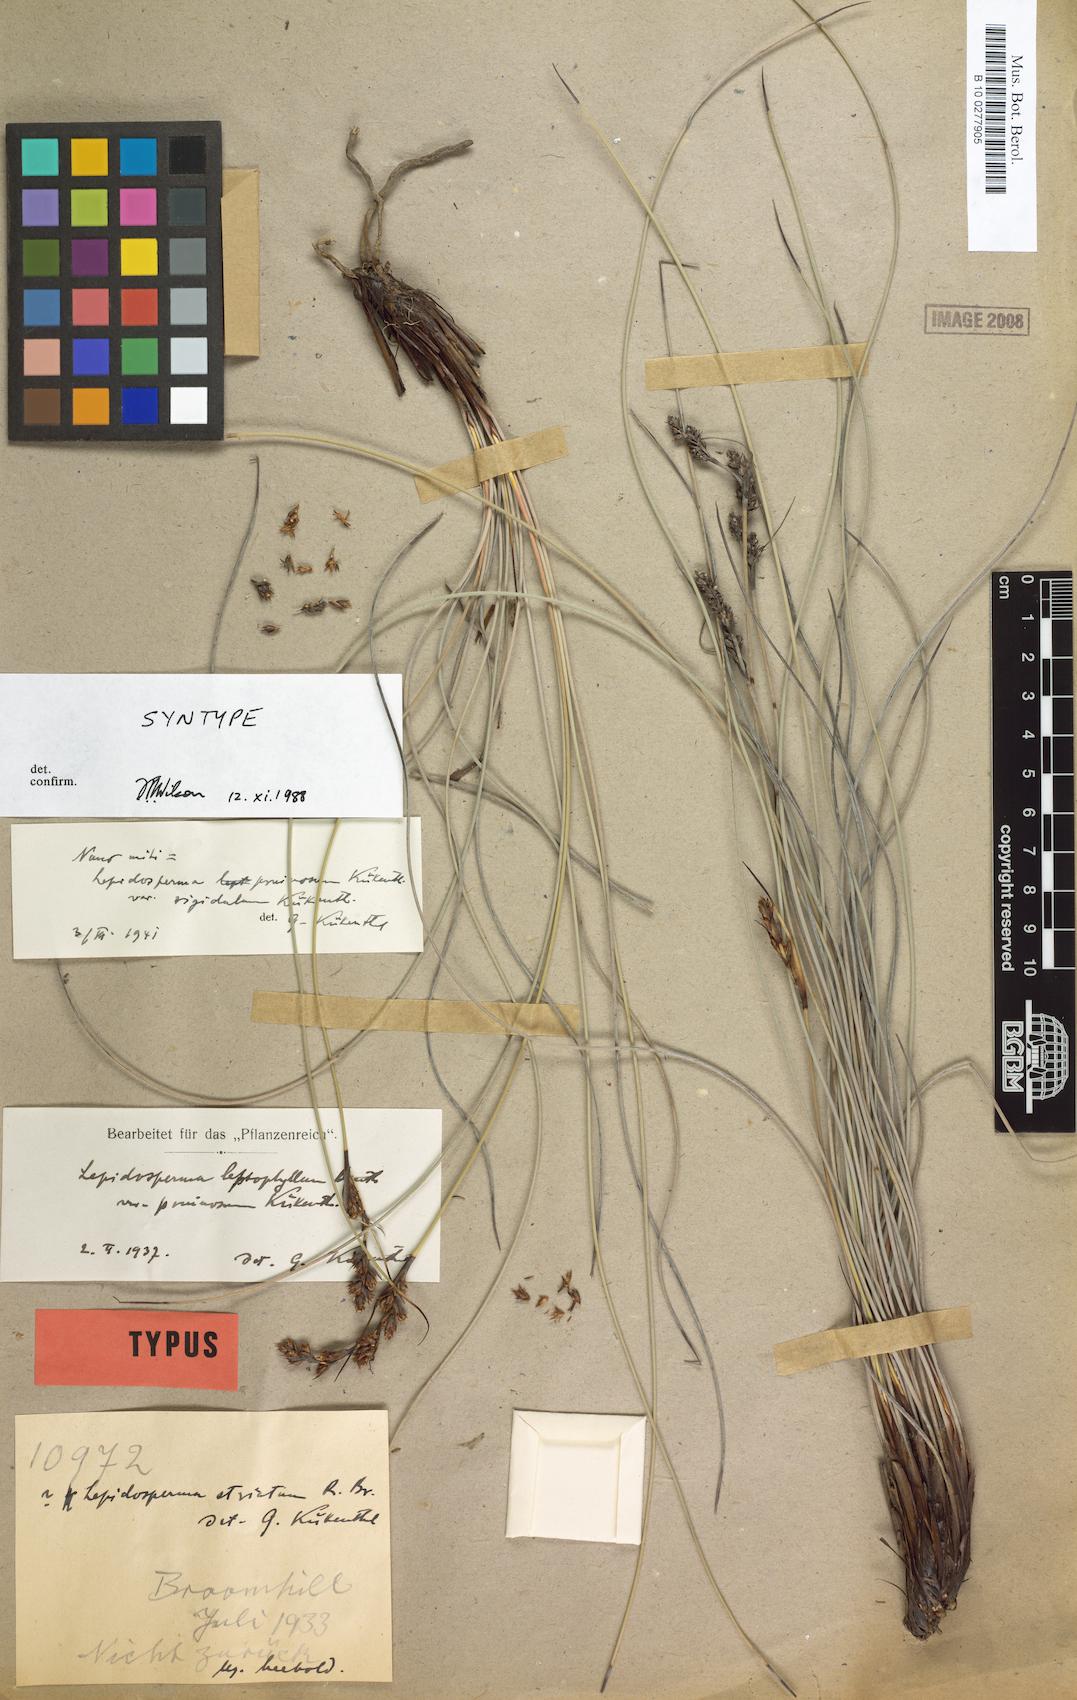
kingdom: Plantae
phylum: Tracheophyta
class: Liliopsida
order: Poales
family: Cyperaceae
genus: Lepidosperma
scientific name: Lepidosperma rigidulum
